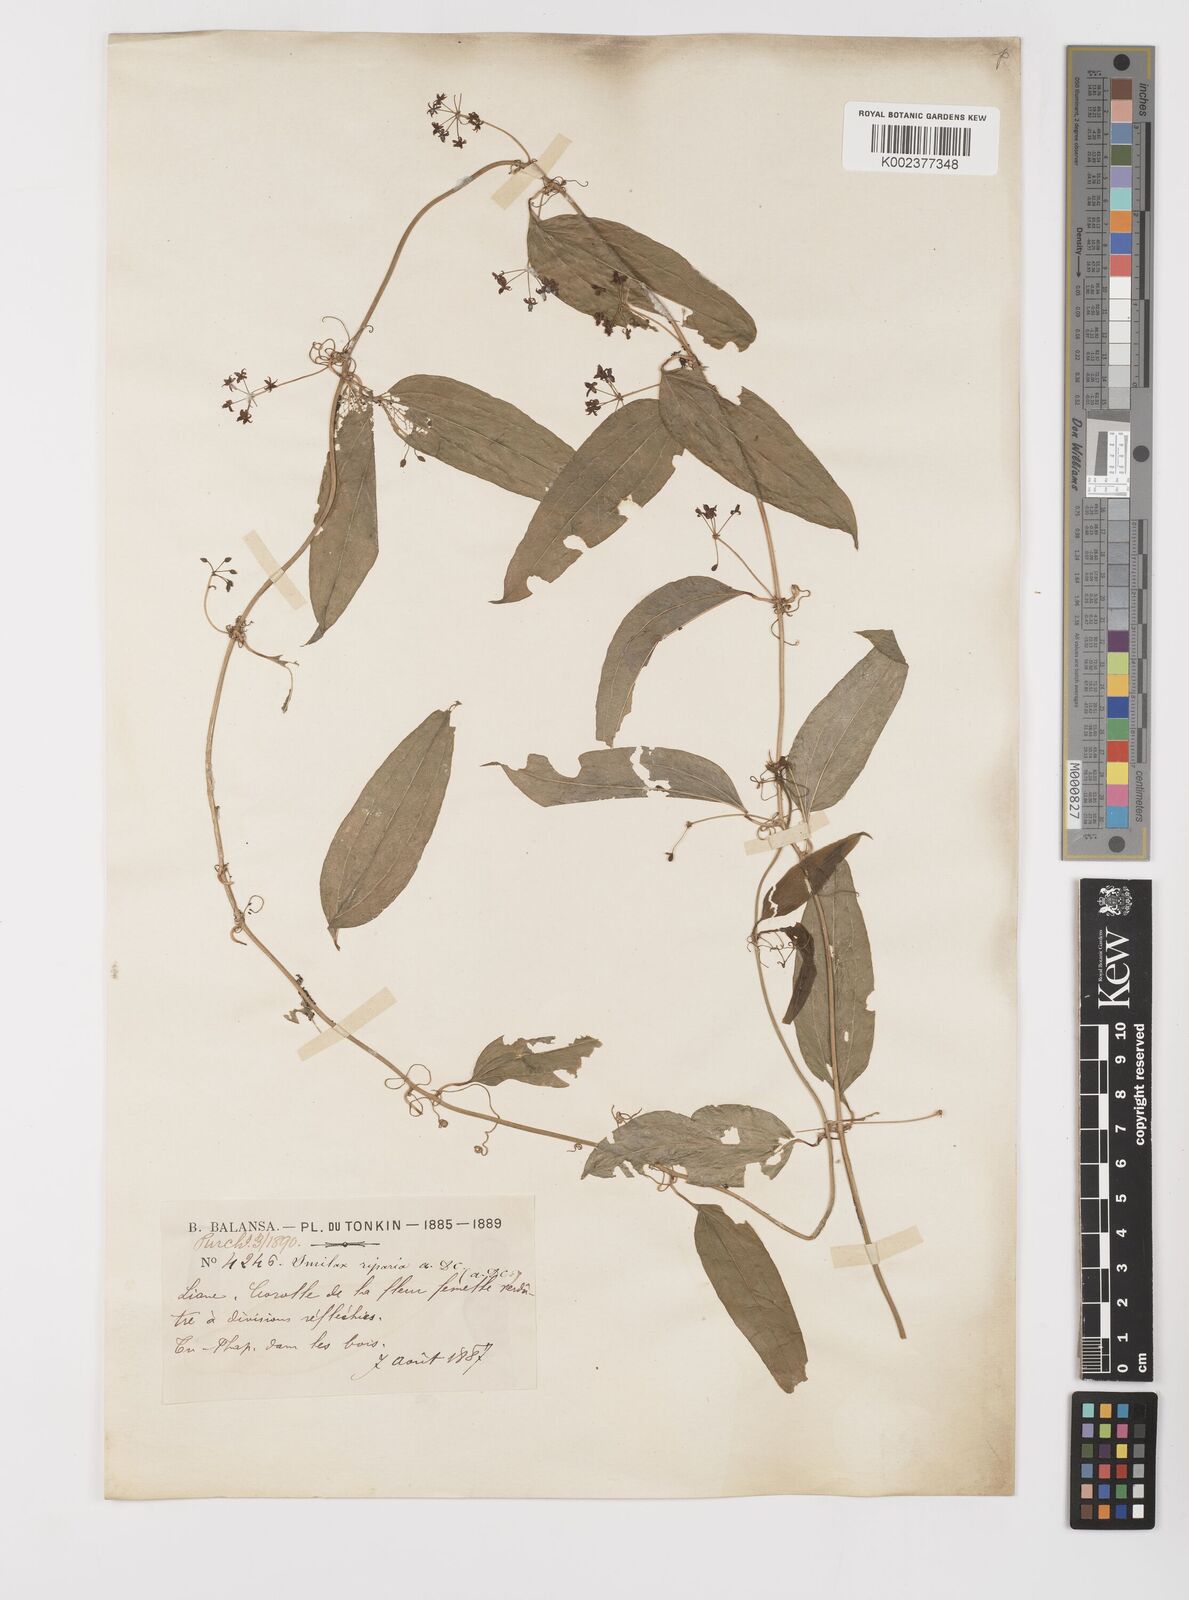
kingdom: Plantae
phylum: Tracheophyta
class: Liliopsida
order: Liliales
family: Smilacaceae
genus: Smilax
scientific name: Smilax riparia
